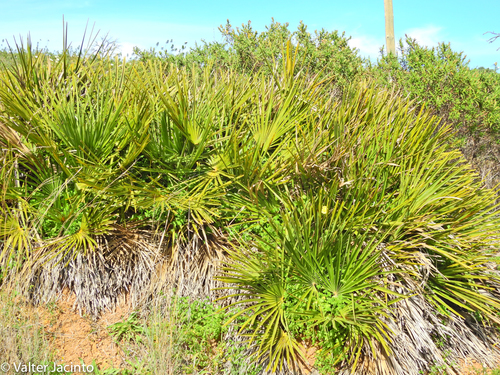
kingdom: Plantae
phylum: Tracheophyta
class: Liliopsida
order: Arecales
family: Arecaceae
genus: Chamaerops
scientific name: Chamaerops humilis
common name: Dwarf fan palm
